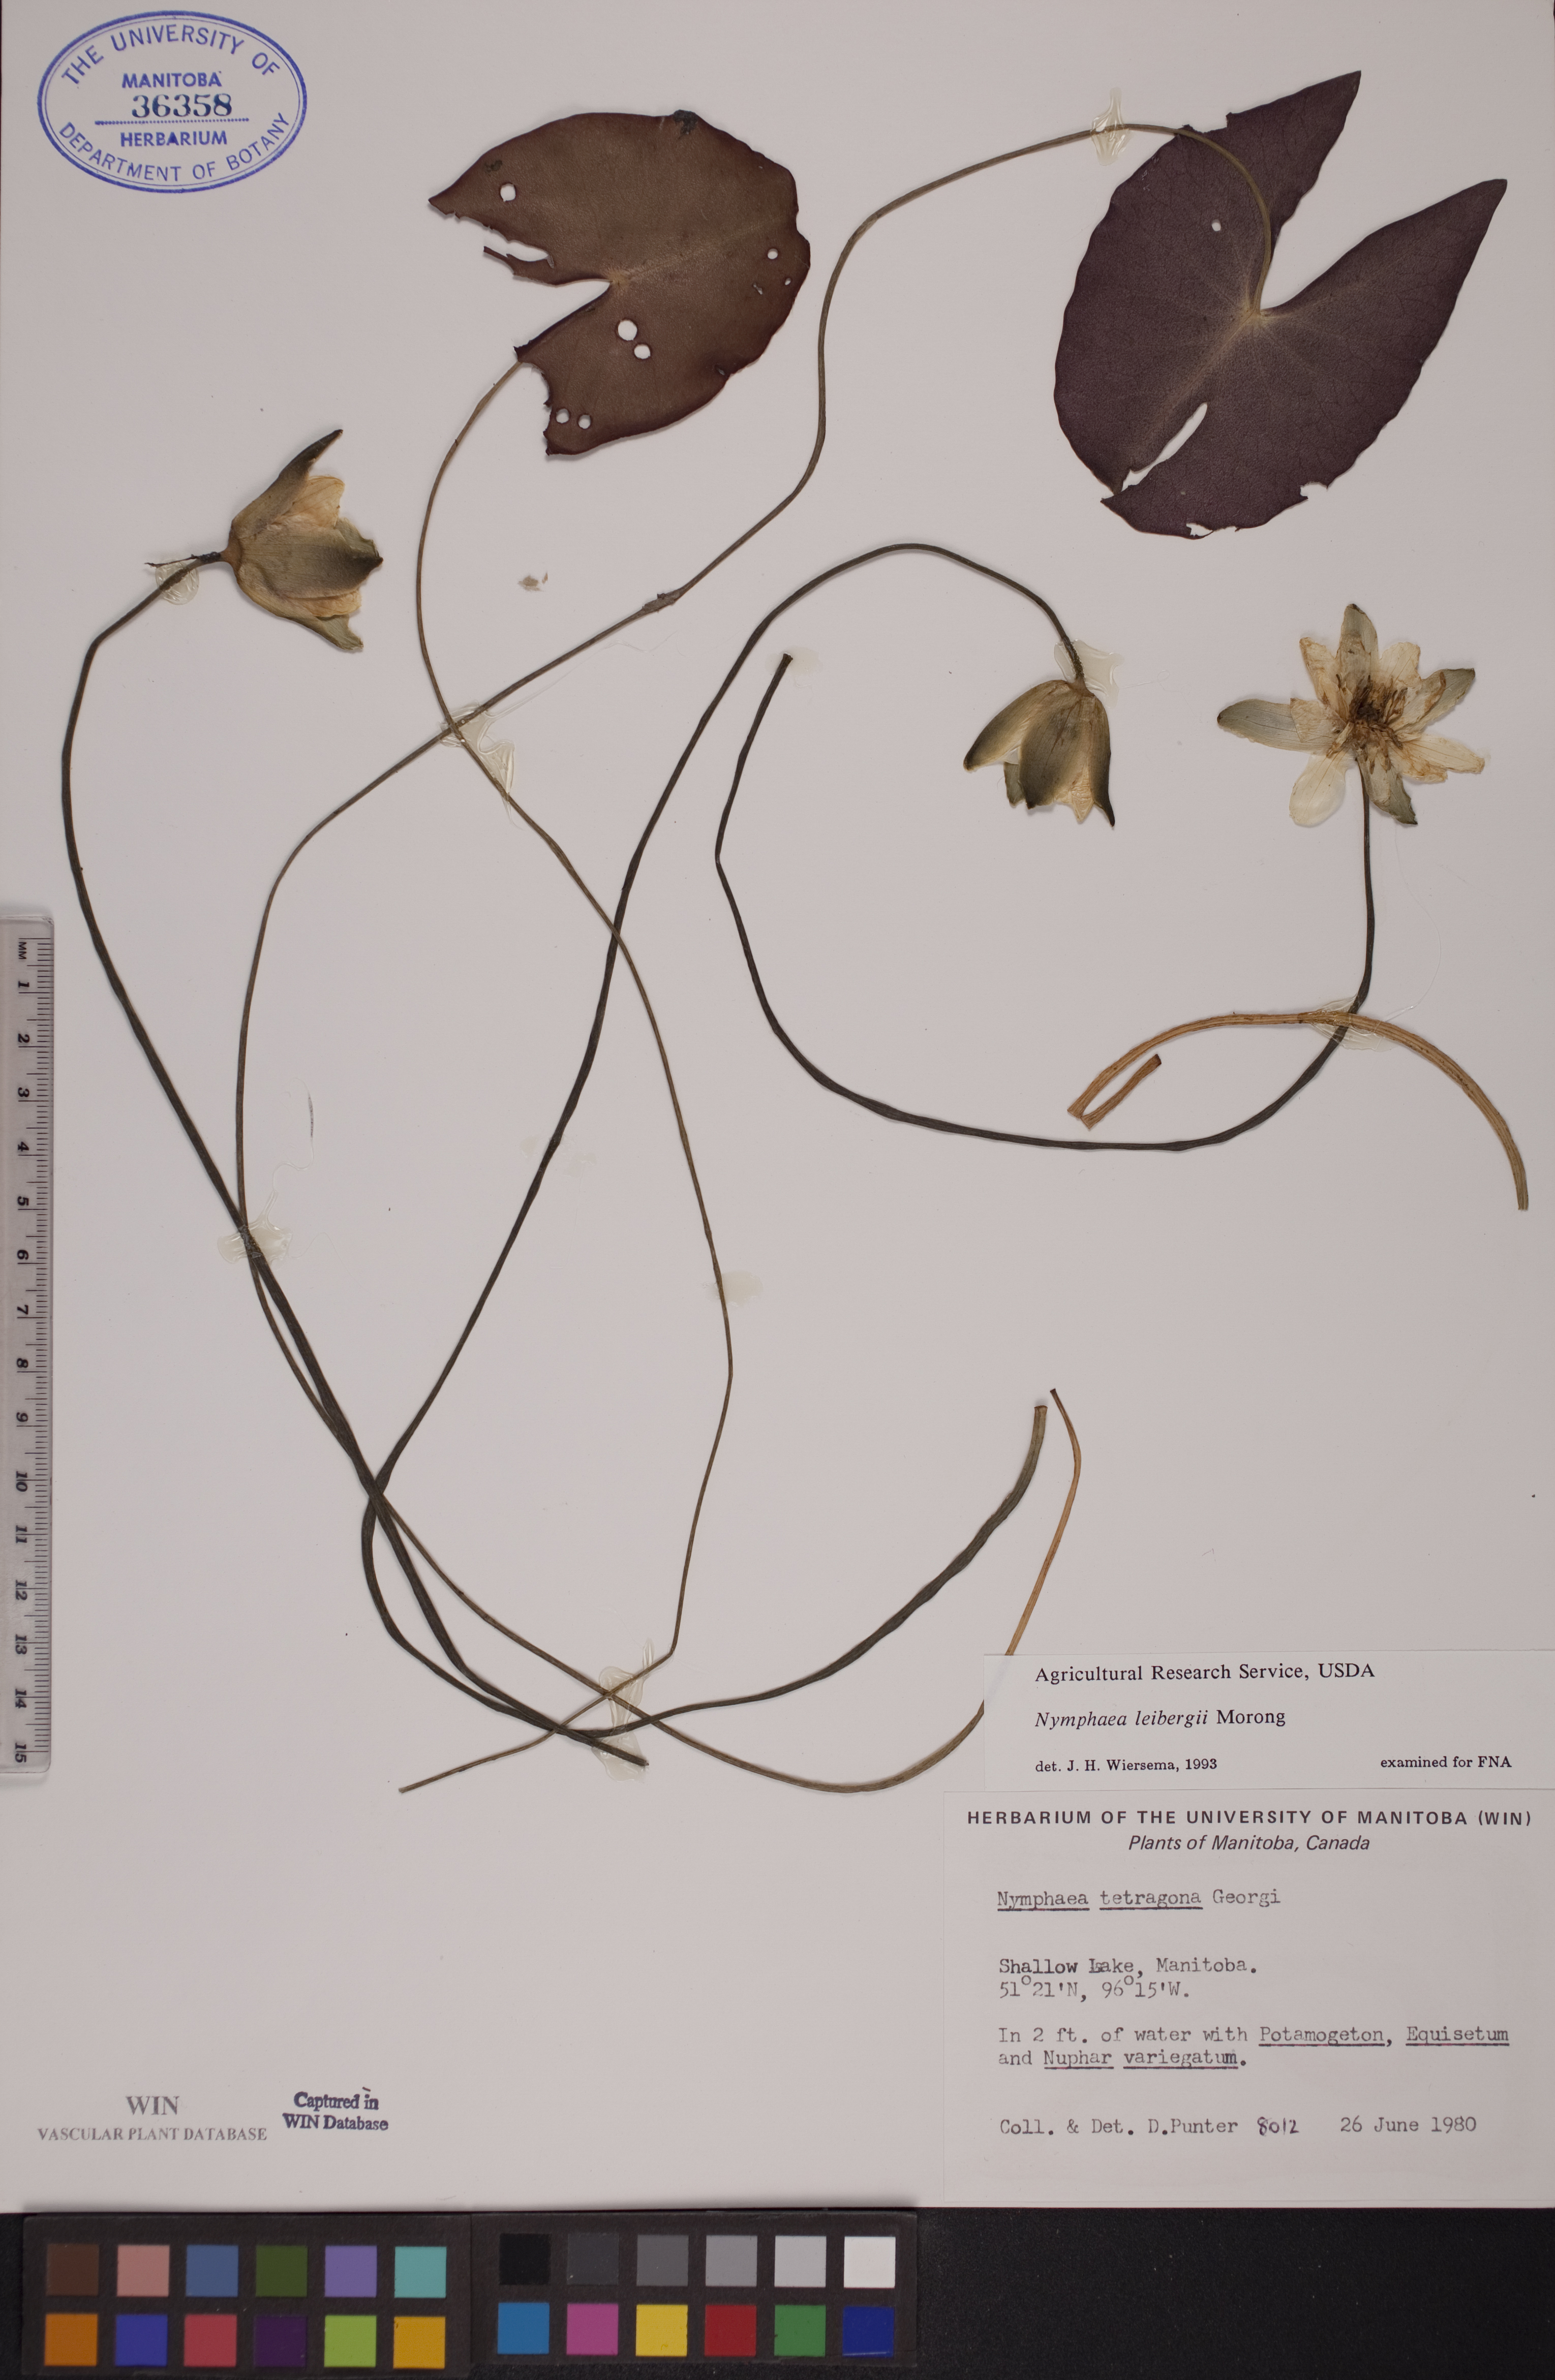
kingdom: Plantae
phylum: Tracheophyta
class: Magnoliopsida
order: Nymphaeales
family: Nymphaeaceae
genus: Nymphaea
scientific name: Nymphaea leibergii
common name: Dwarf water-lily
